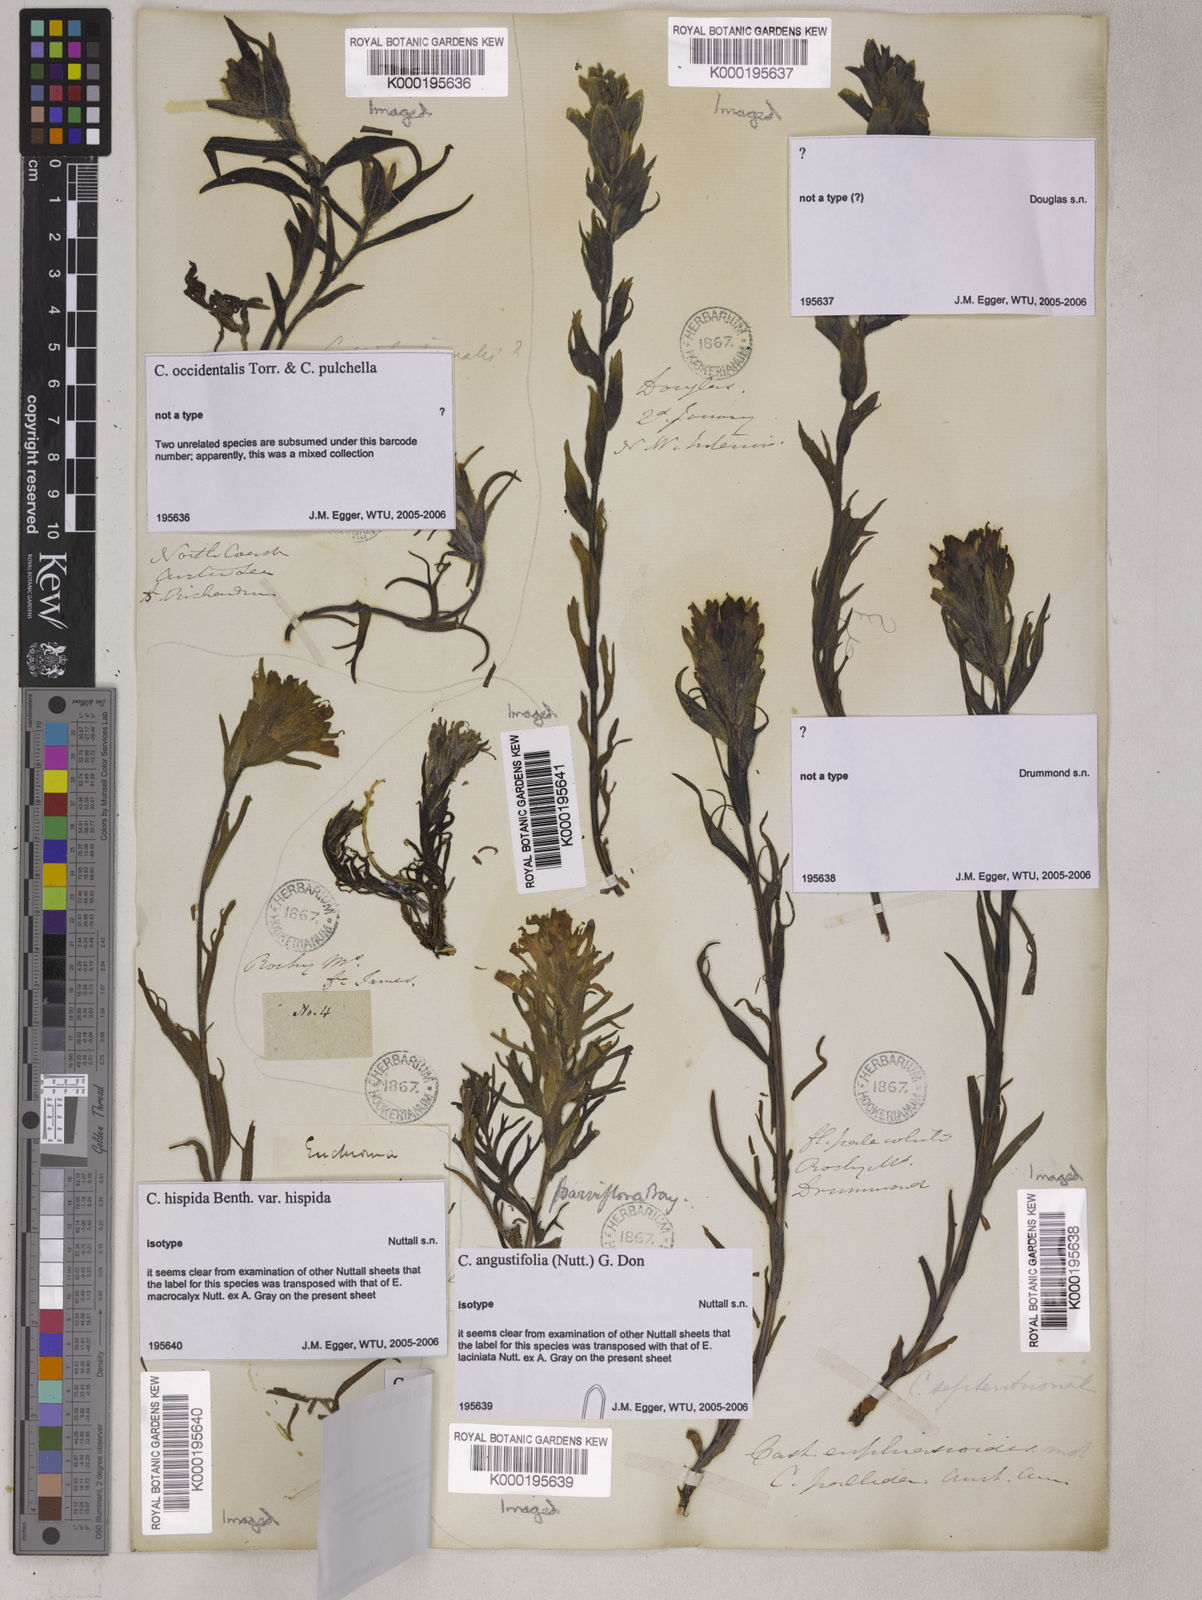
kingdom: Plantae
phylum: Tracheophyta
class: Magnoliopsida
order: Lamiales
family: Orobanchaceae
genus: Castilleja
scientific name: Castilleja hispida
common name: Bristly paintbrush
